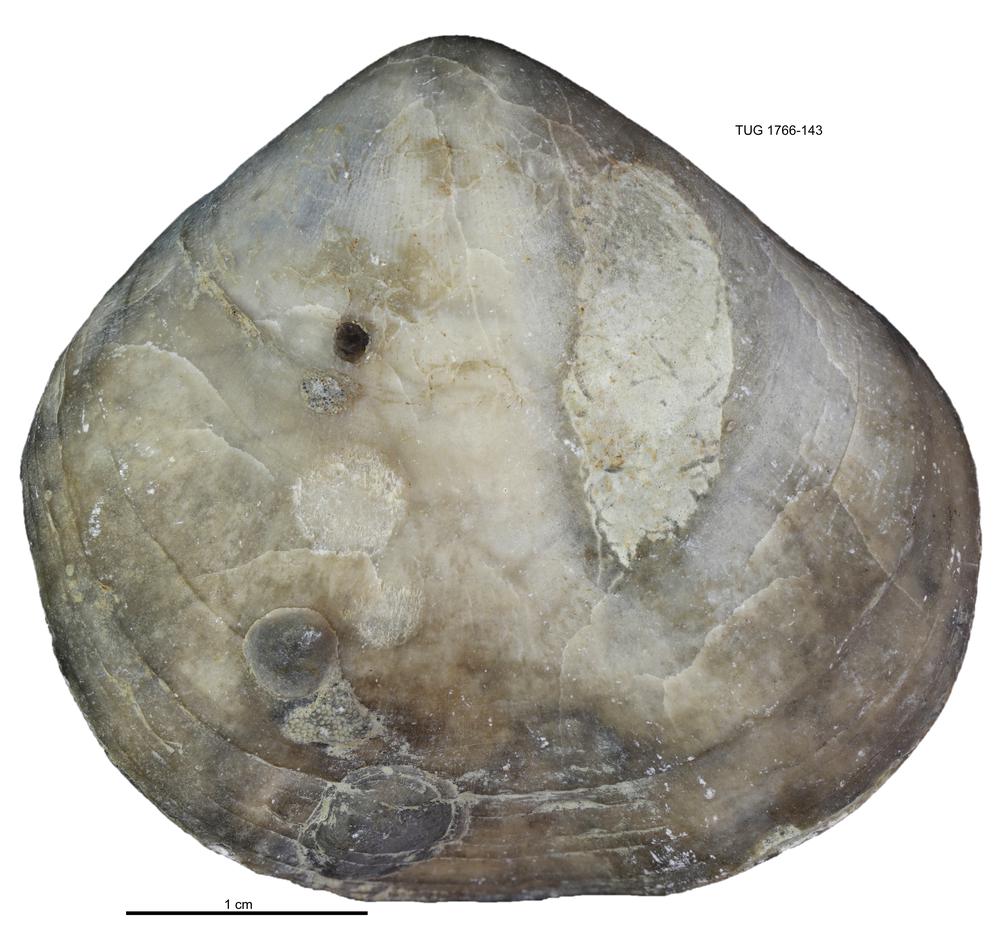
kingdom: Animalia
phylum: Brachiopoda
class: Rhynchonellata
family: Porambonitidae
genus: Porambonites
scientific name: Porambonites
